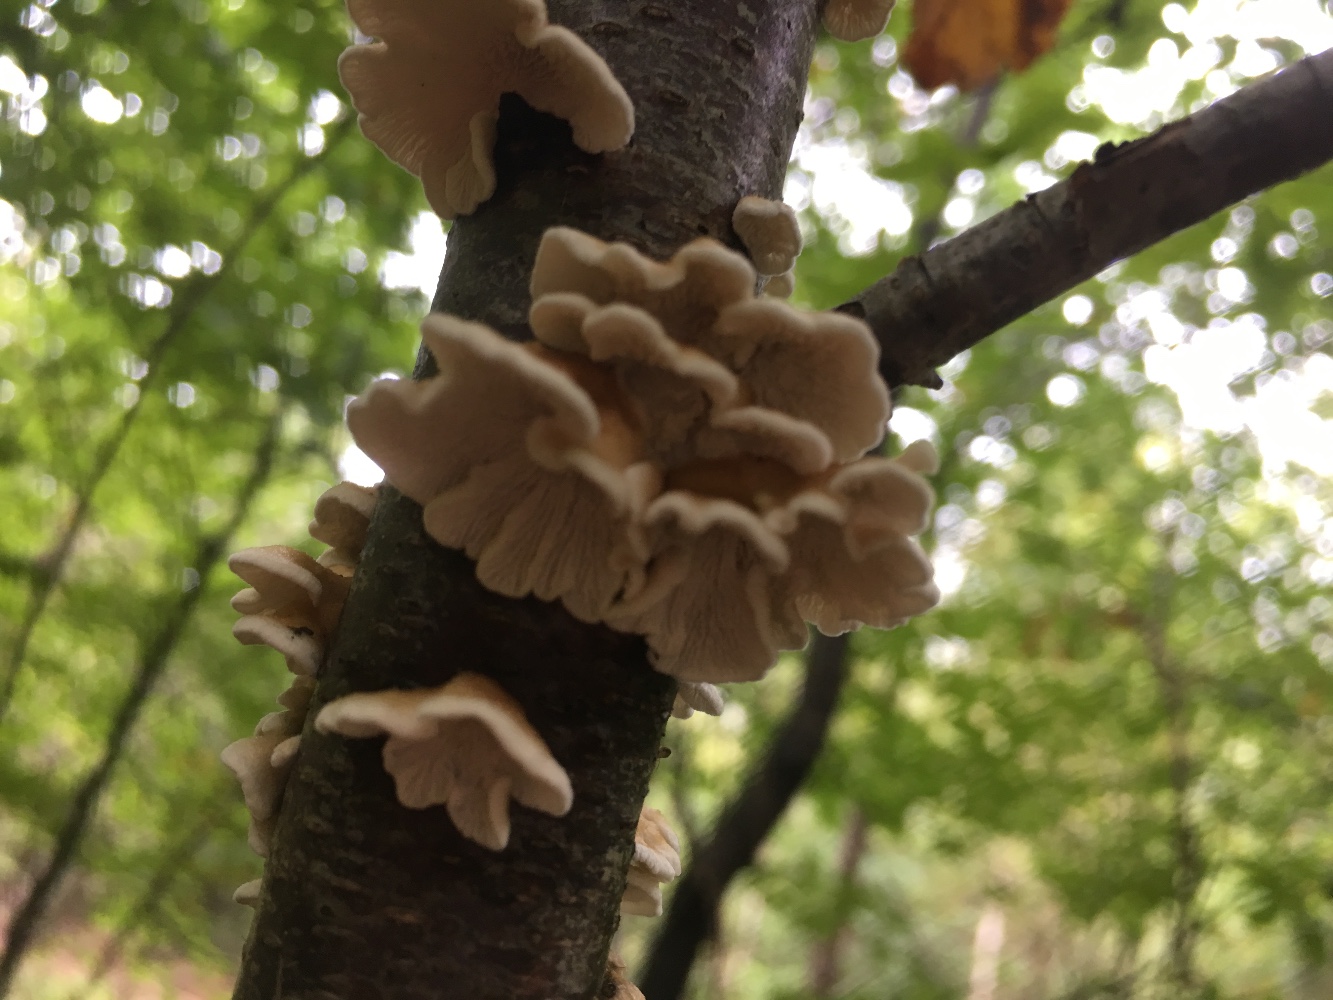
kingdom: Fungi
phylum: Basidiomycota
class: Agaricomycetes
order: Amylocorticiales
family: Amylocorticiaceae
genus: Plicaturopsis
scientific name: Plicaturopsis crispa
